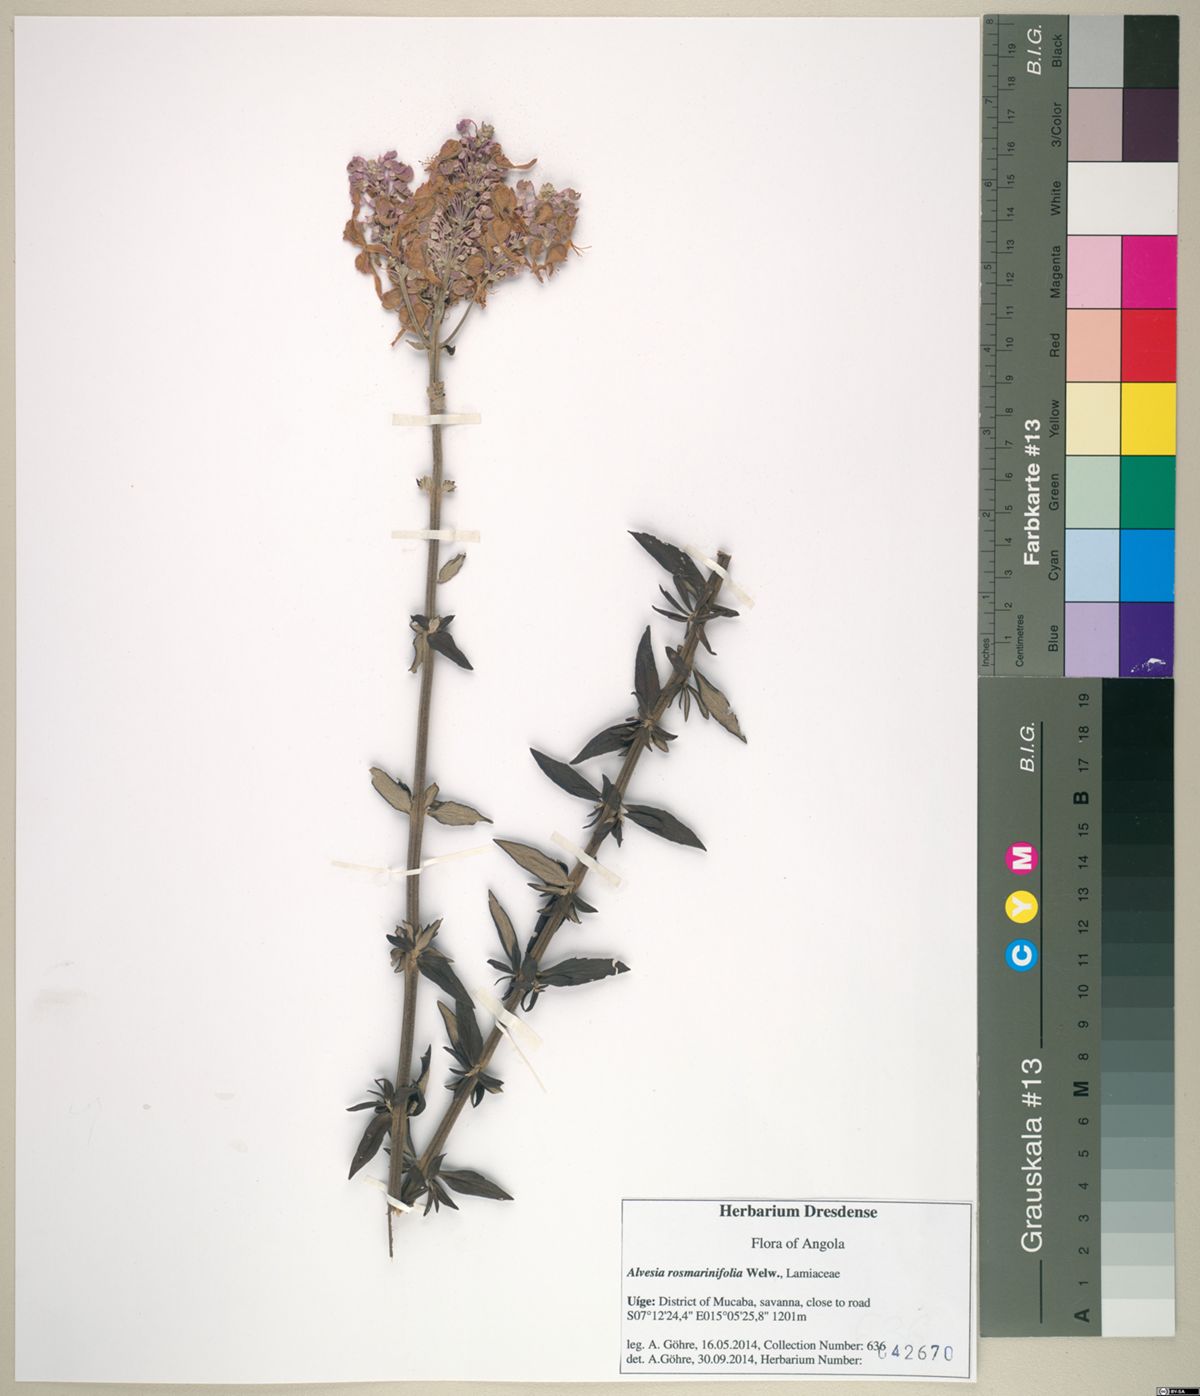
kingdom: Plantae
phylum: Tracheophyta
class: Magnoliopsida
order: Lamiales
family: Lamiaceae
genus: Alvesia
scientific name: Alvesia rosmarinifolia
